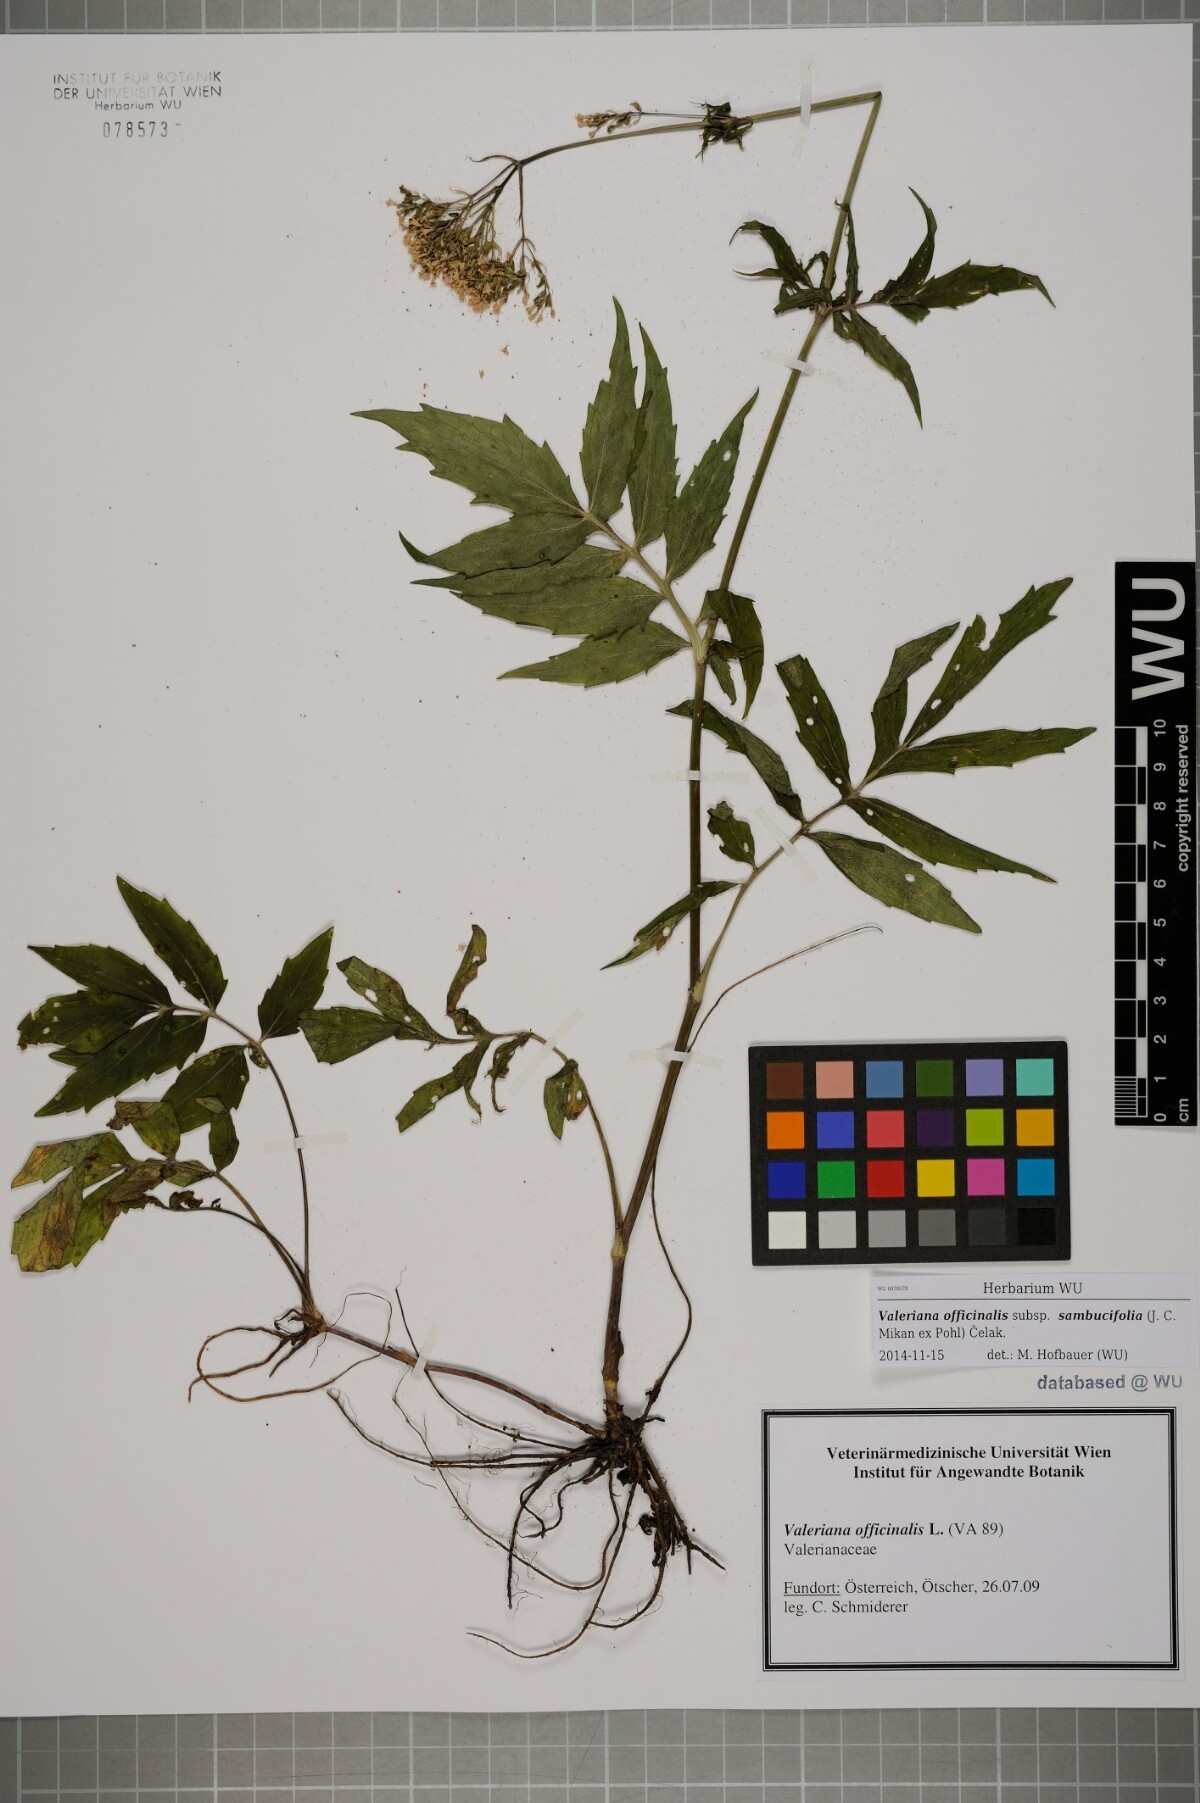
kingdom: Plantae
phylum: Tracheophyta
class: Magnoliopsida
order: Dipsacales
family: Caprifoliaceae
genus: Valeriana
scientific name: Valeriana excelsa
